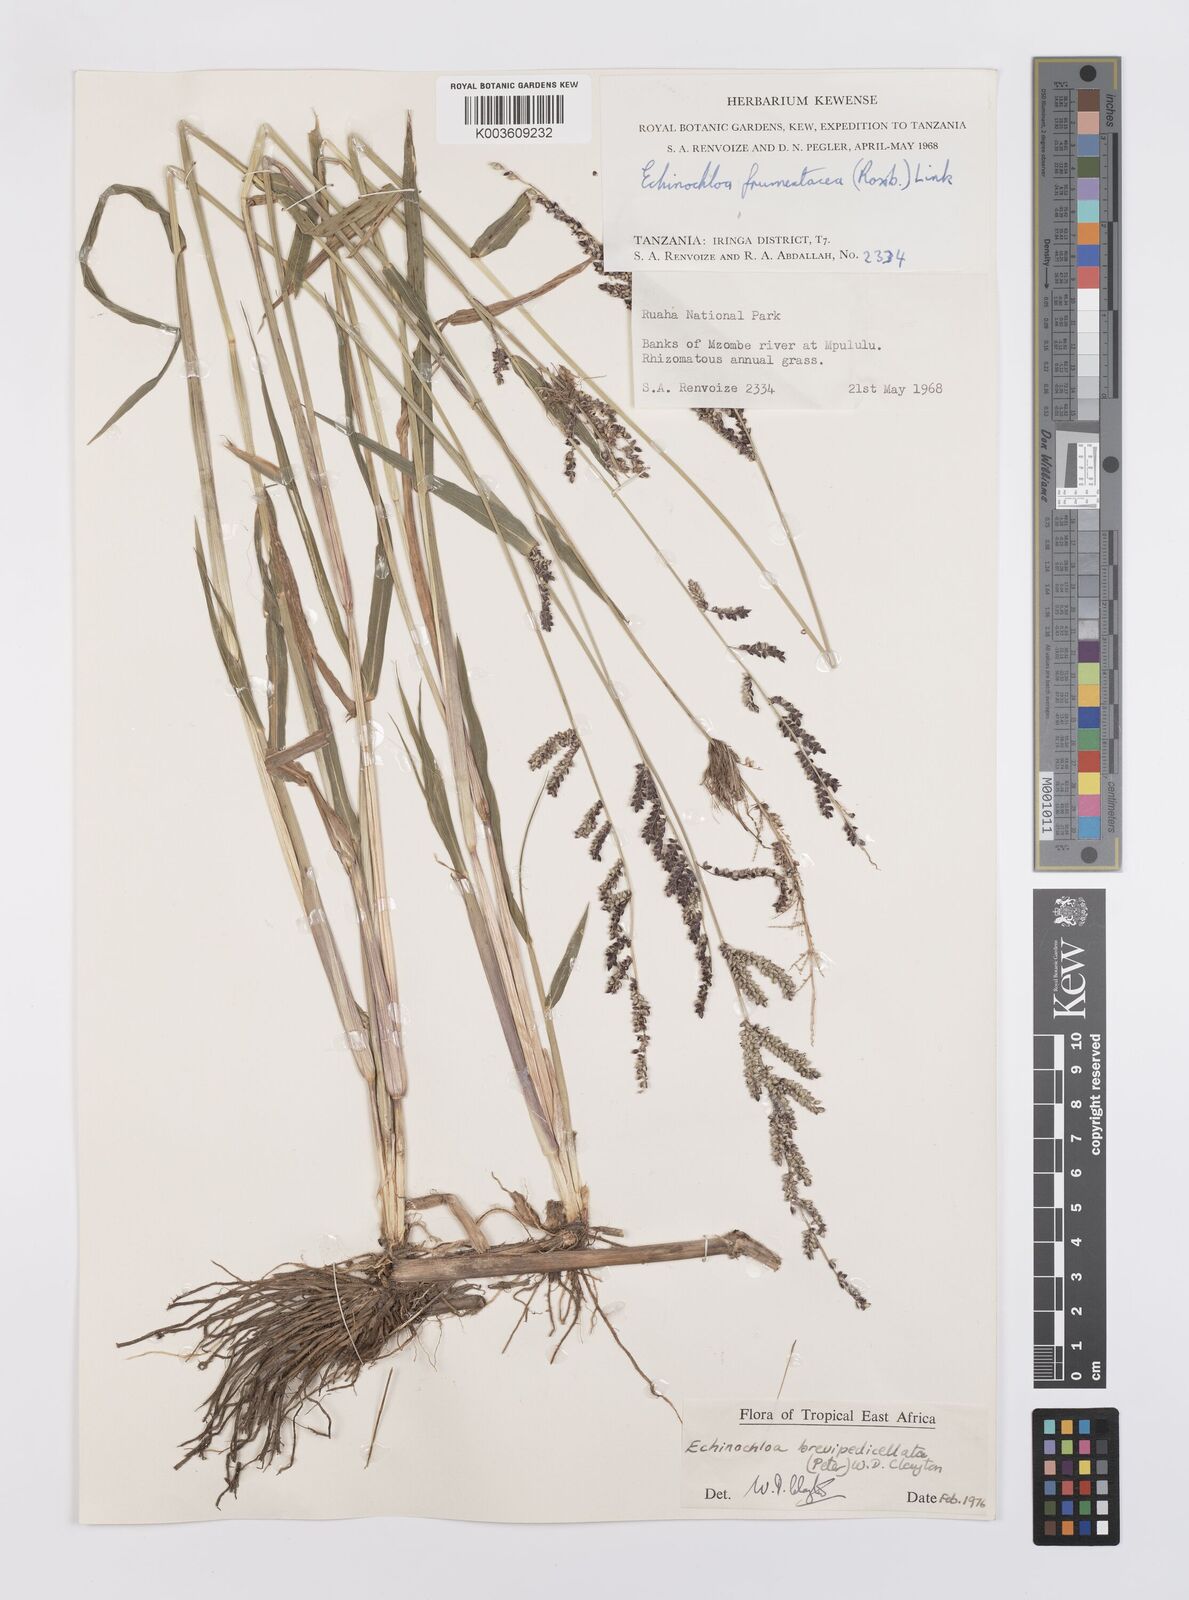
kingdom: Plantae
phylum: Tracheophyta
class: Liliopsida
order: Poales
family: Poaceae
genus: Echinochloa
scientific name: Echinochloa brevipedicellata
